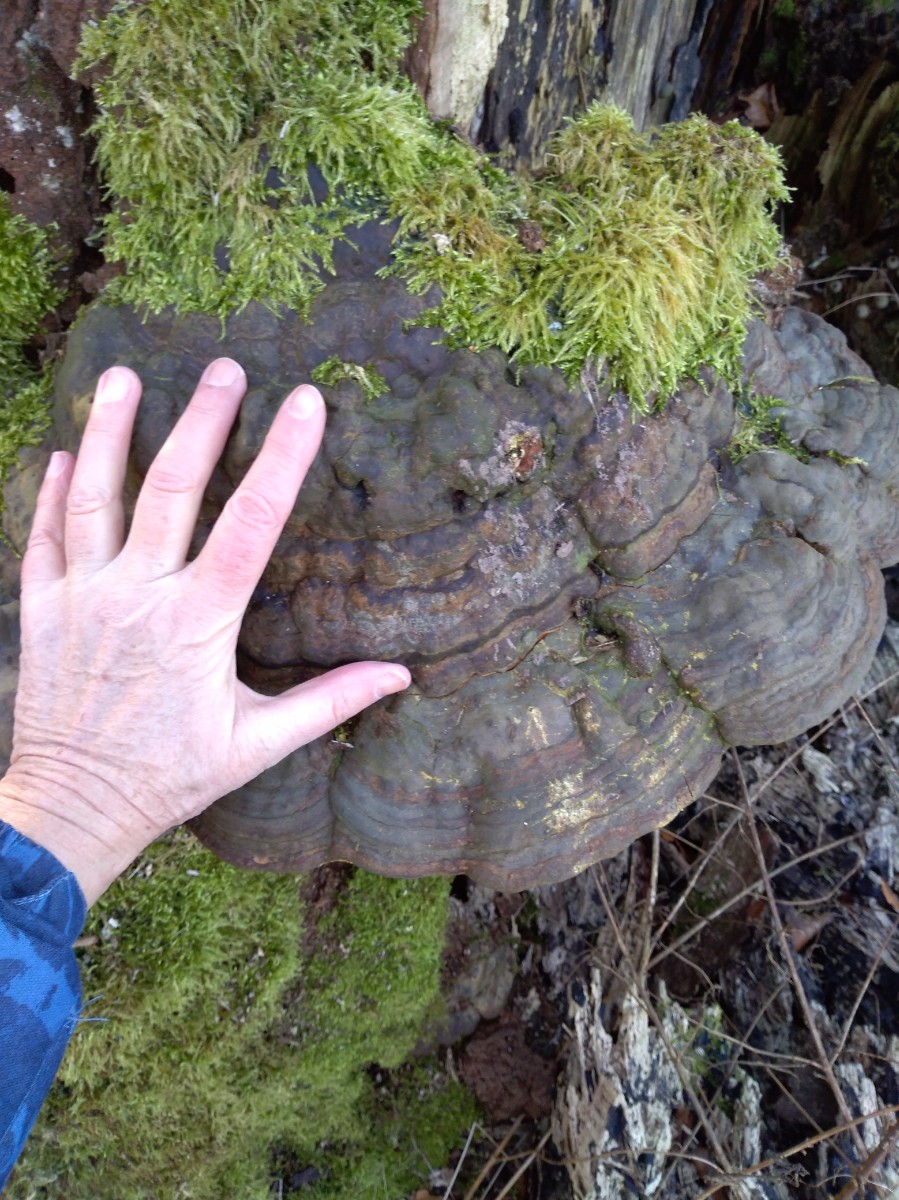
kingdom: Fungi
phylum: Basidiomycota
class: Agaricomycetes
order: Polyporales
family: Polyporaceae
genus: Fomes
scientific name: Fomes fomentarius
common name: tøndersvamp
